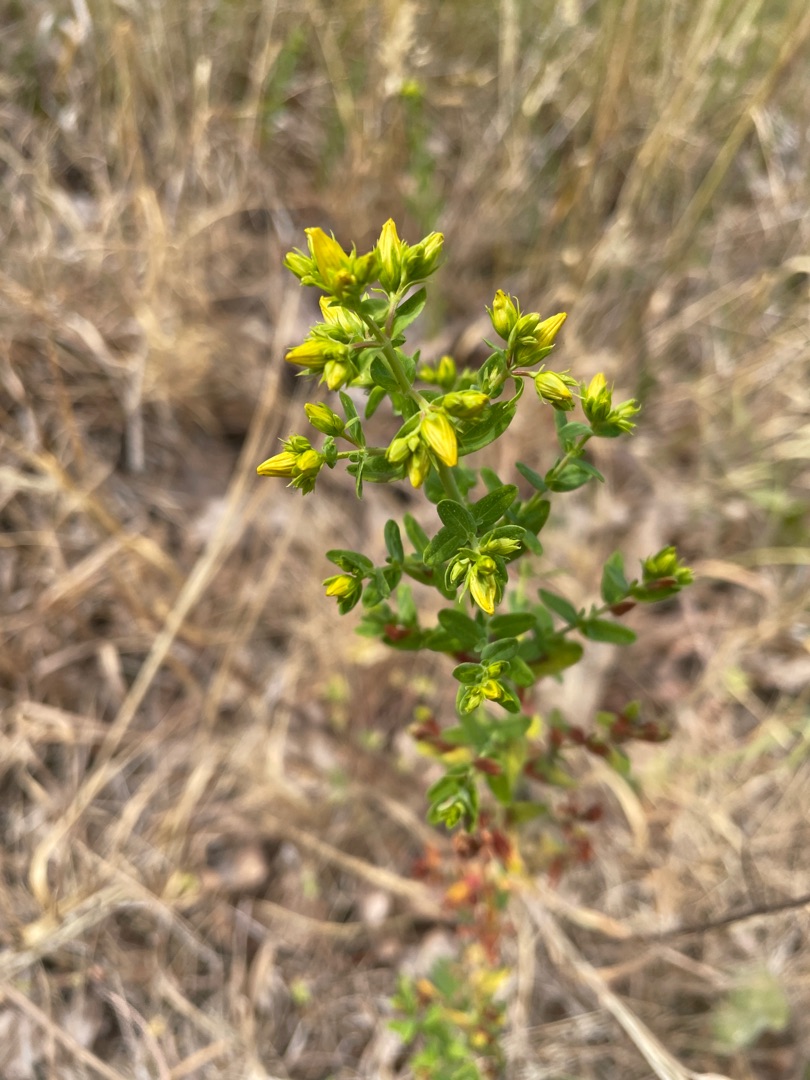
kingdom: Plantae
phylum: Tracheophyta
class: Magnoliopsida
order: Malpighiales
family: Hypericaceae
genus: Hypericum
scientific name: Hypericum perforatum
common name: Prikbladet perikon
